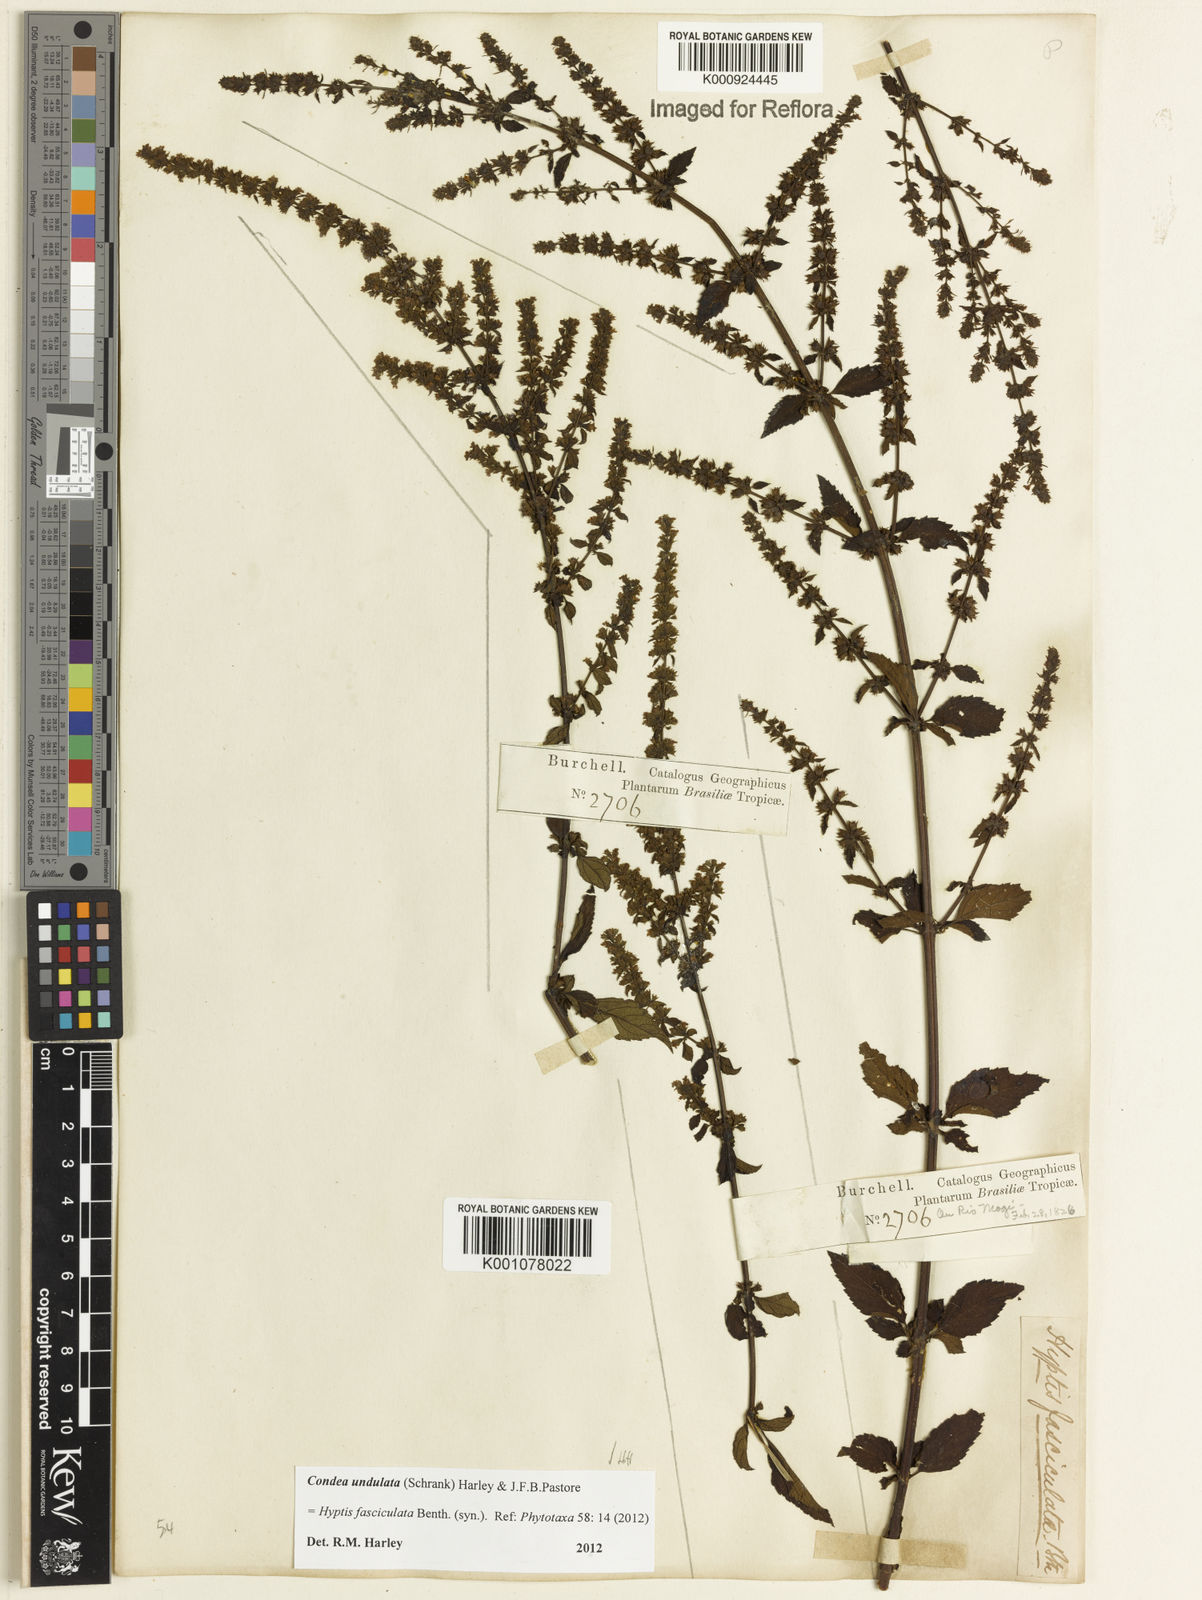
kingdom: Plantae
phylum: Tracheophyta
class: Magnoliopsida
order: Lamiales
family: Lamiaceae
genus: Condea
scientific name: Condea undulata
